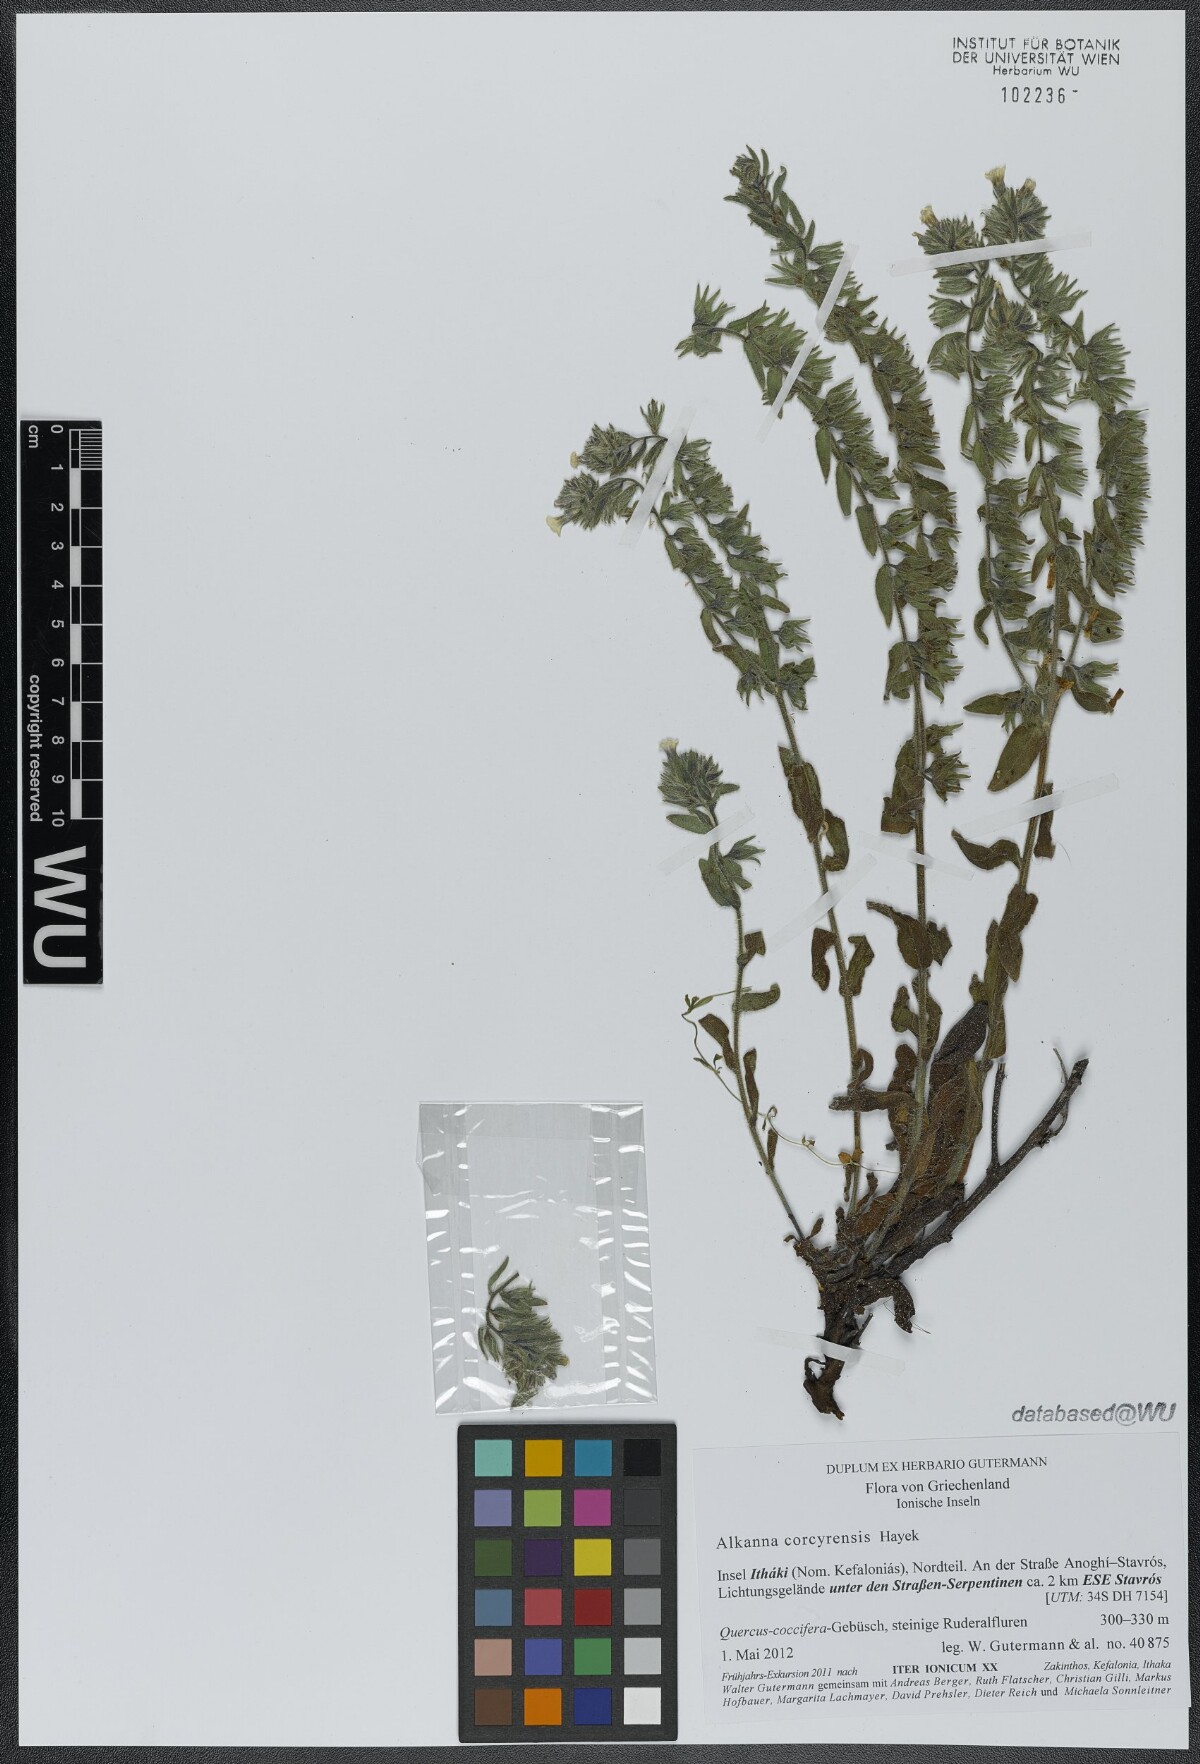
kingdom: Plantae
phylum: Tracheophyta
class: Magnoliopsida
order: Boraginales
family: Boraginaceae
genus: Alkanna
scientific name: Alkanna corcyrensis
